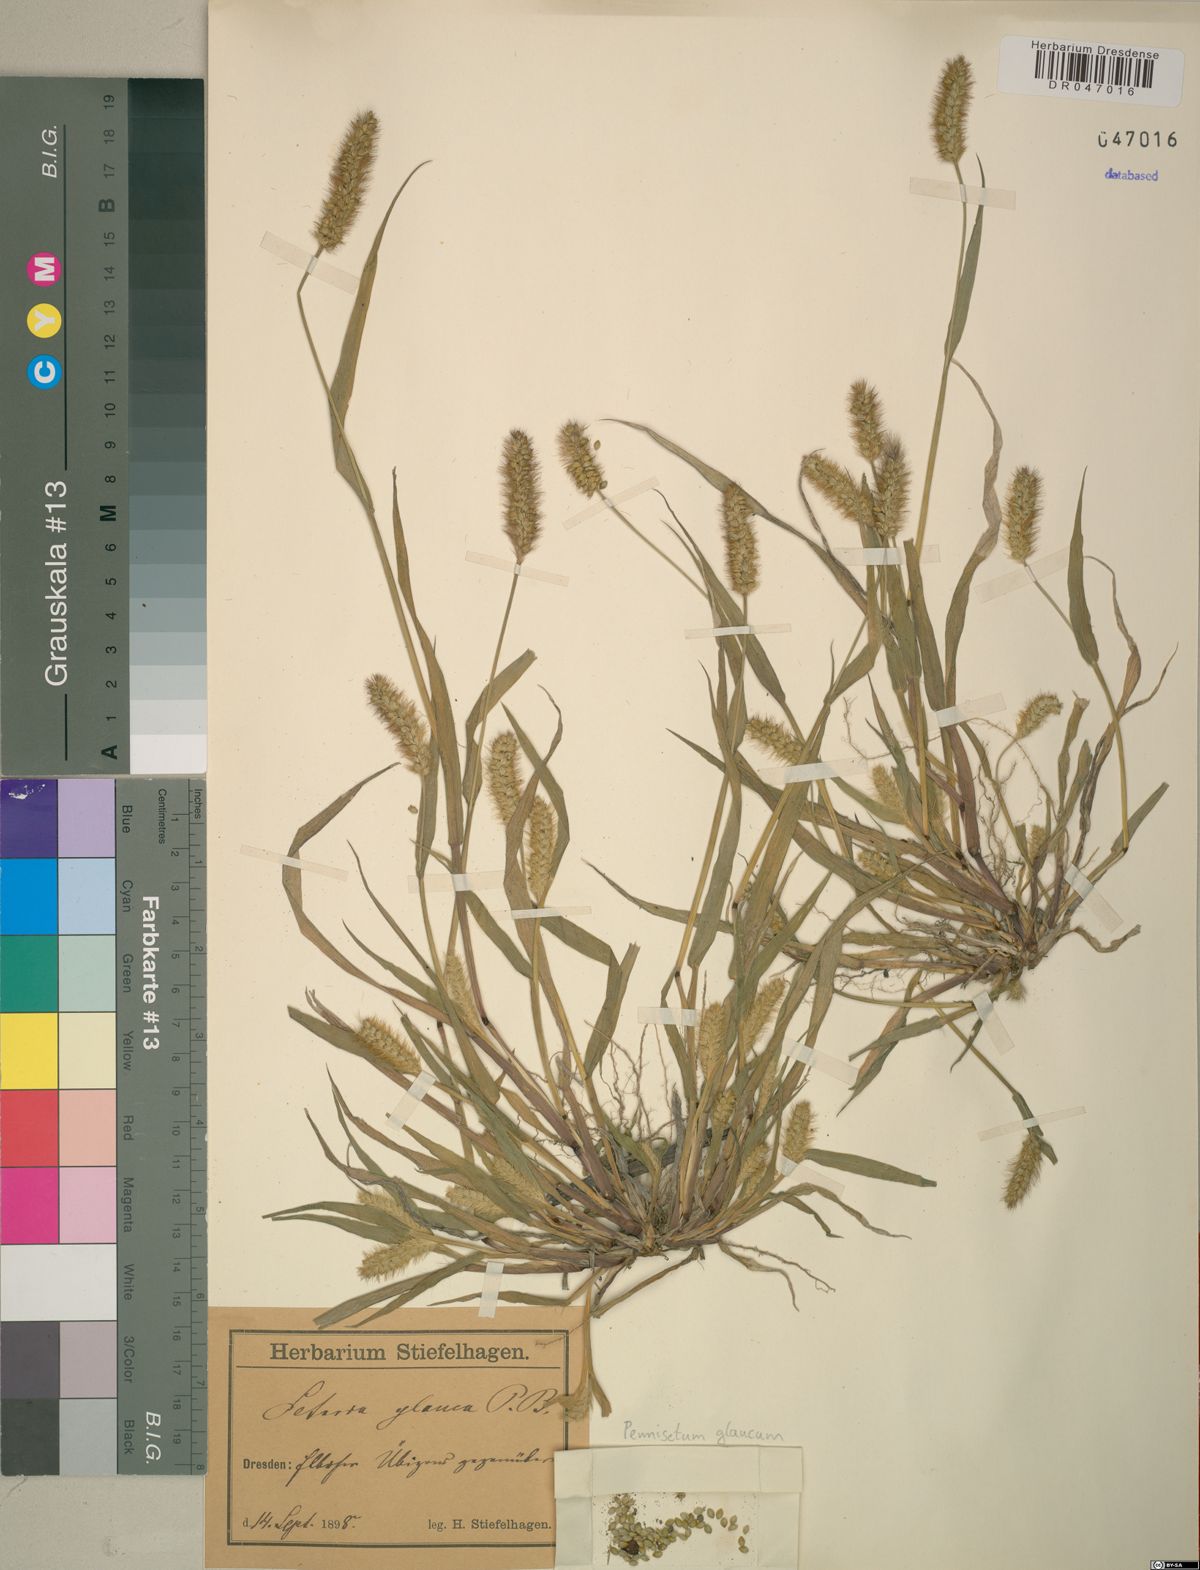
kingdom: Plantae
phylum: Tracheophyta
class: Liliopsida
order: Poales
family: Poaceae
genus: Cenchrus
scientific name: Cenchrus americanus
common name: Pearl millet
